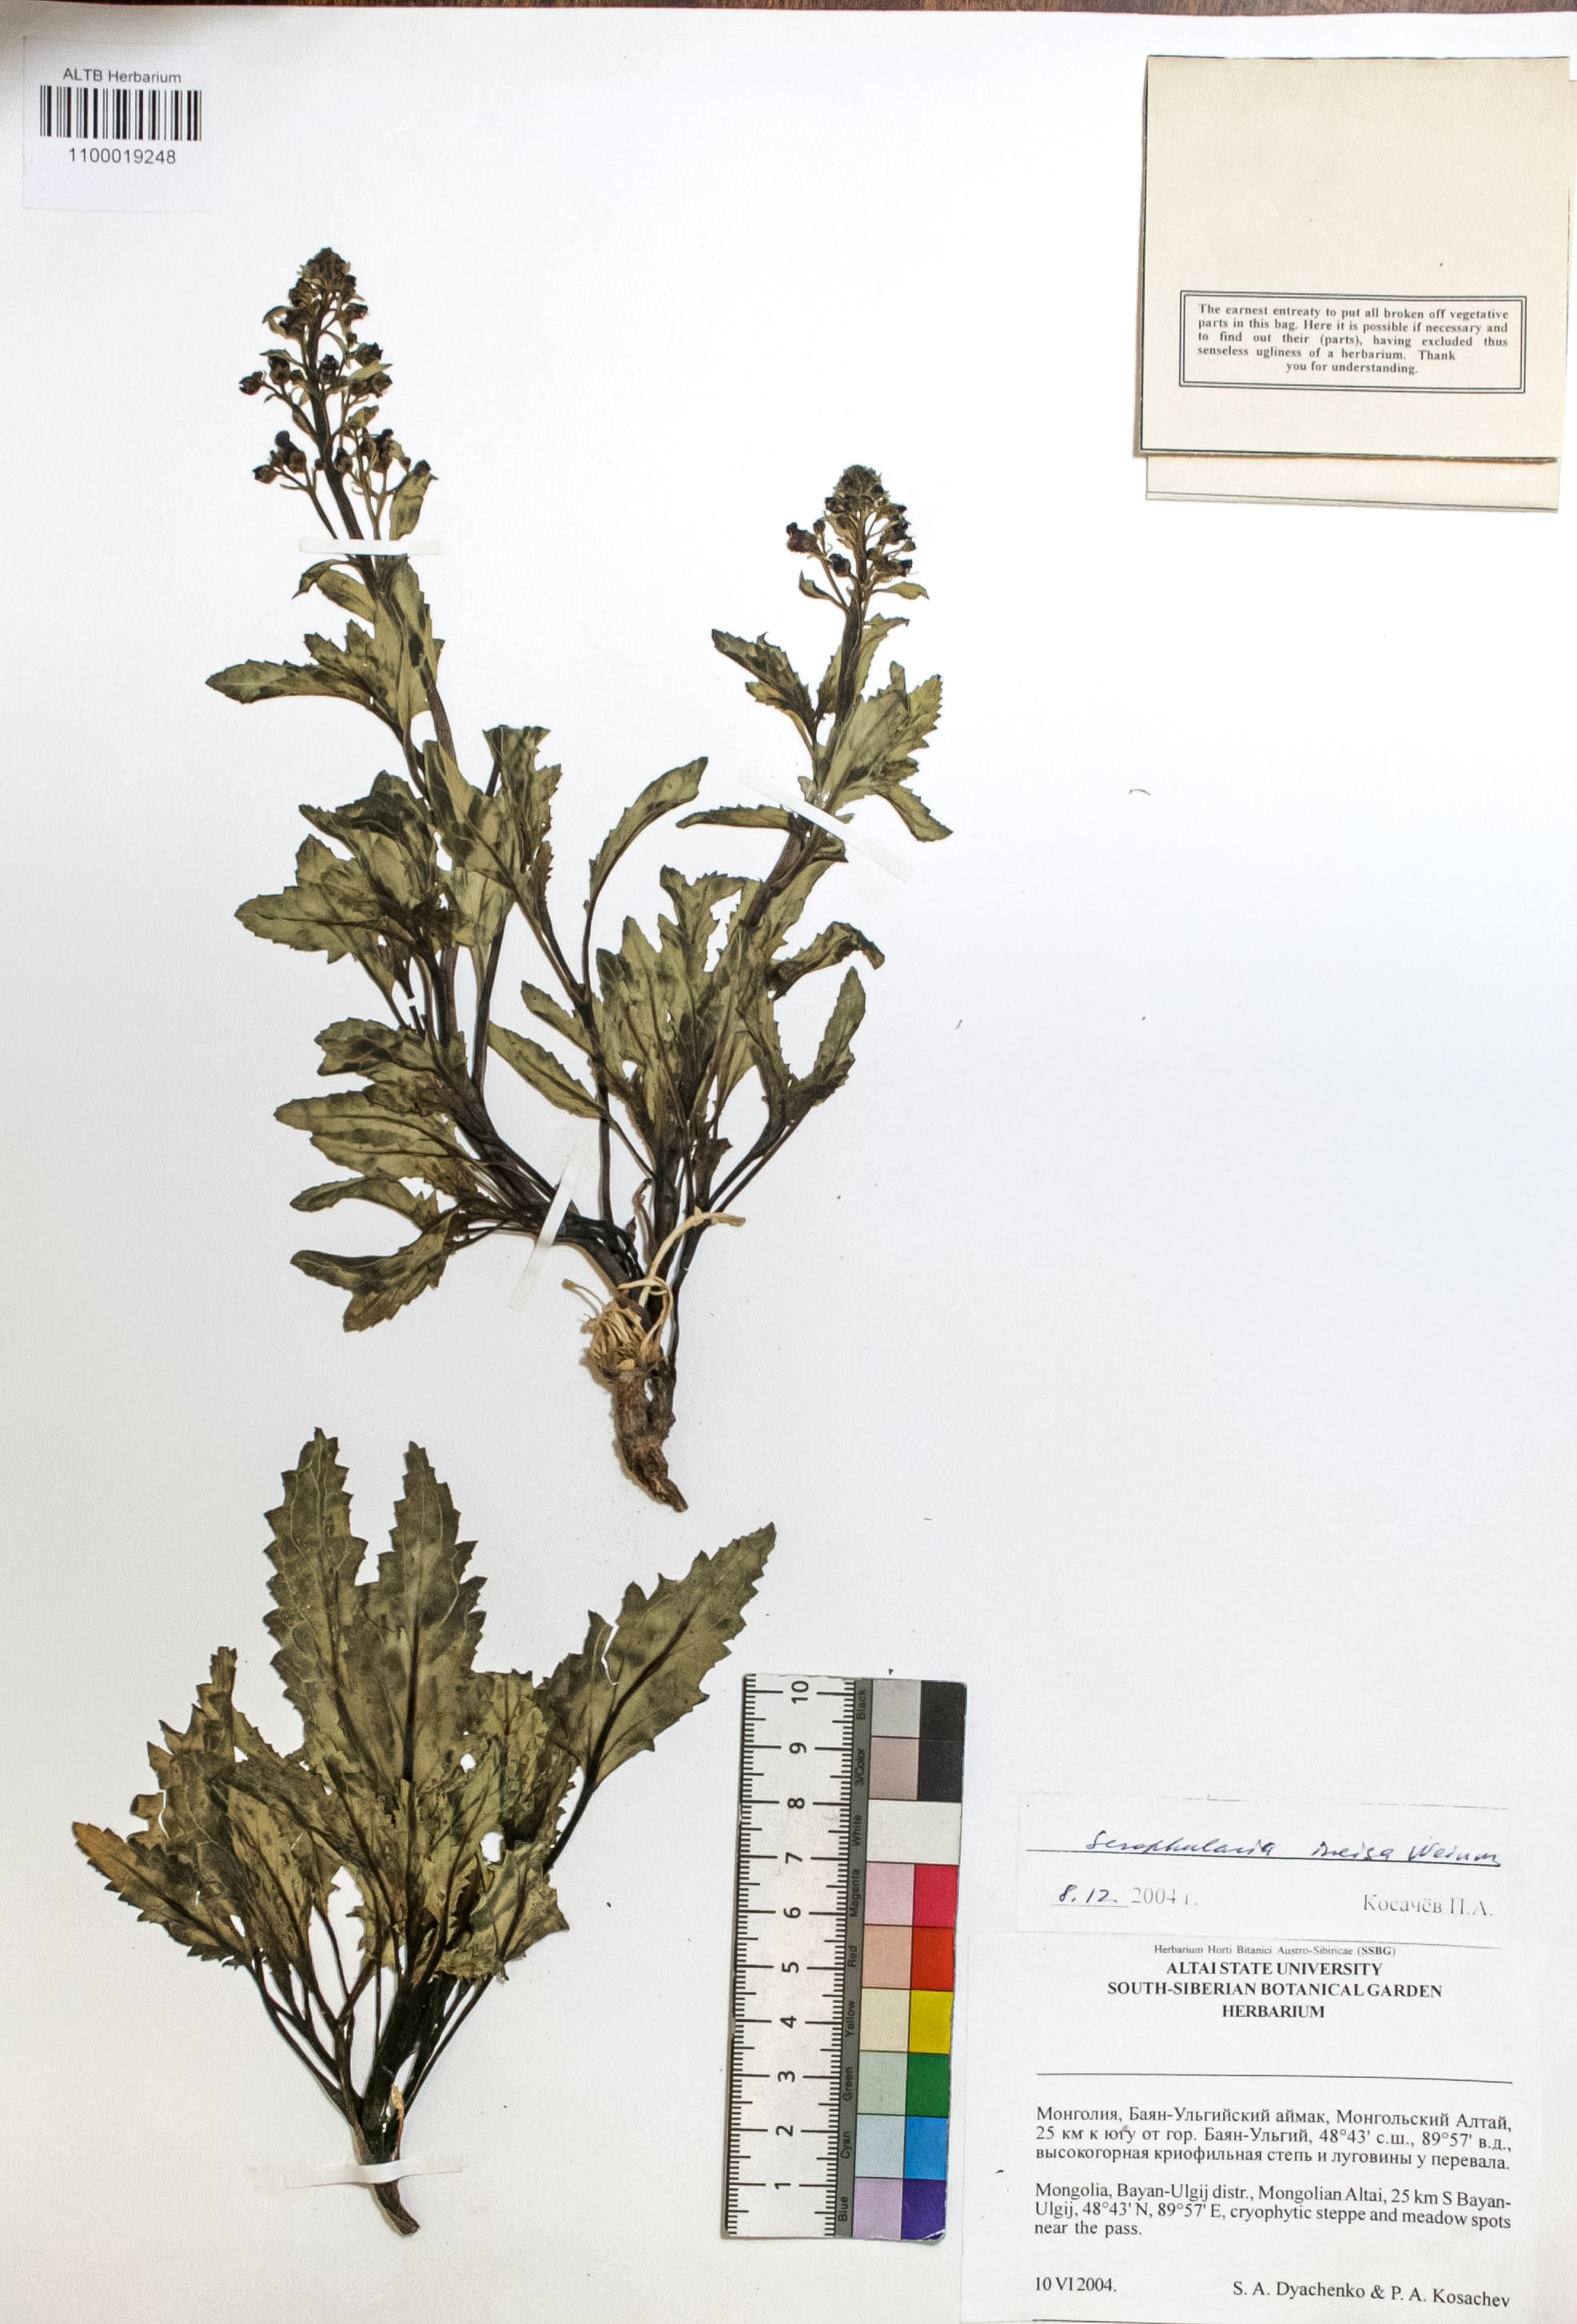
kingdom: Plantae
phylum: Tracheophyta
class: Magnoliopsida
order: Lamiales
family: Scrophulariaceae
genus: Scrophularia
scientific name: Scrophularia incisa
